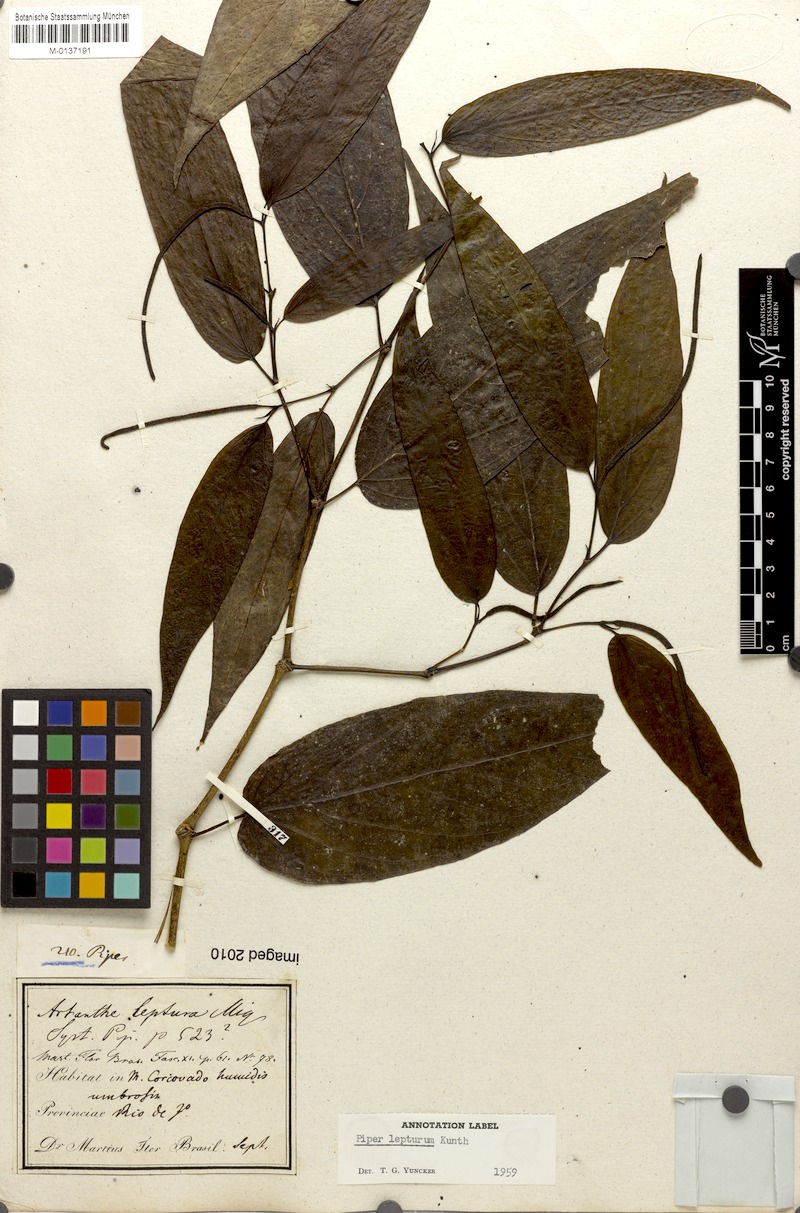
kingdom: Plantae
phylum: Tracheophyta
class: Magnoliopsida
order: Piperales
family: Piperaceae
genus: Piper
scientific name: Piper lepturum
